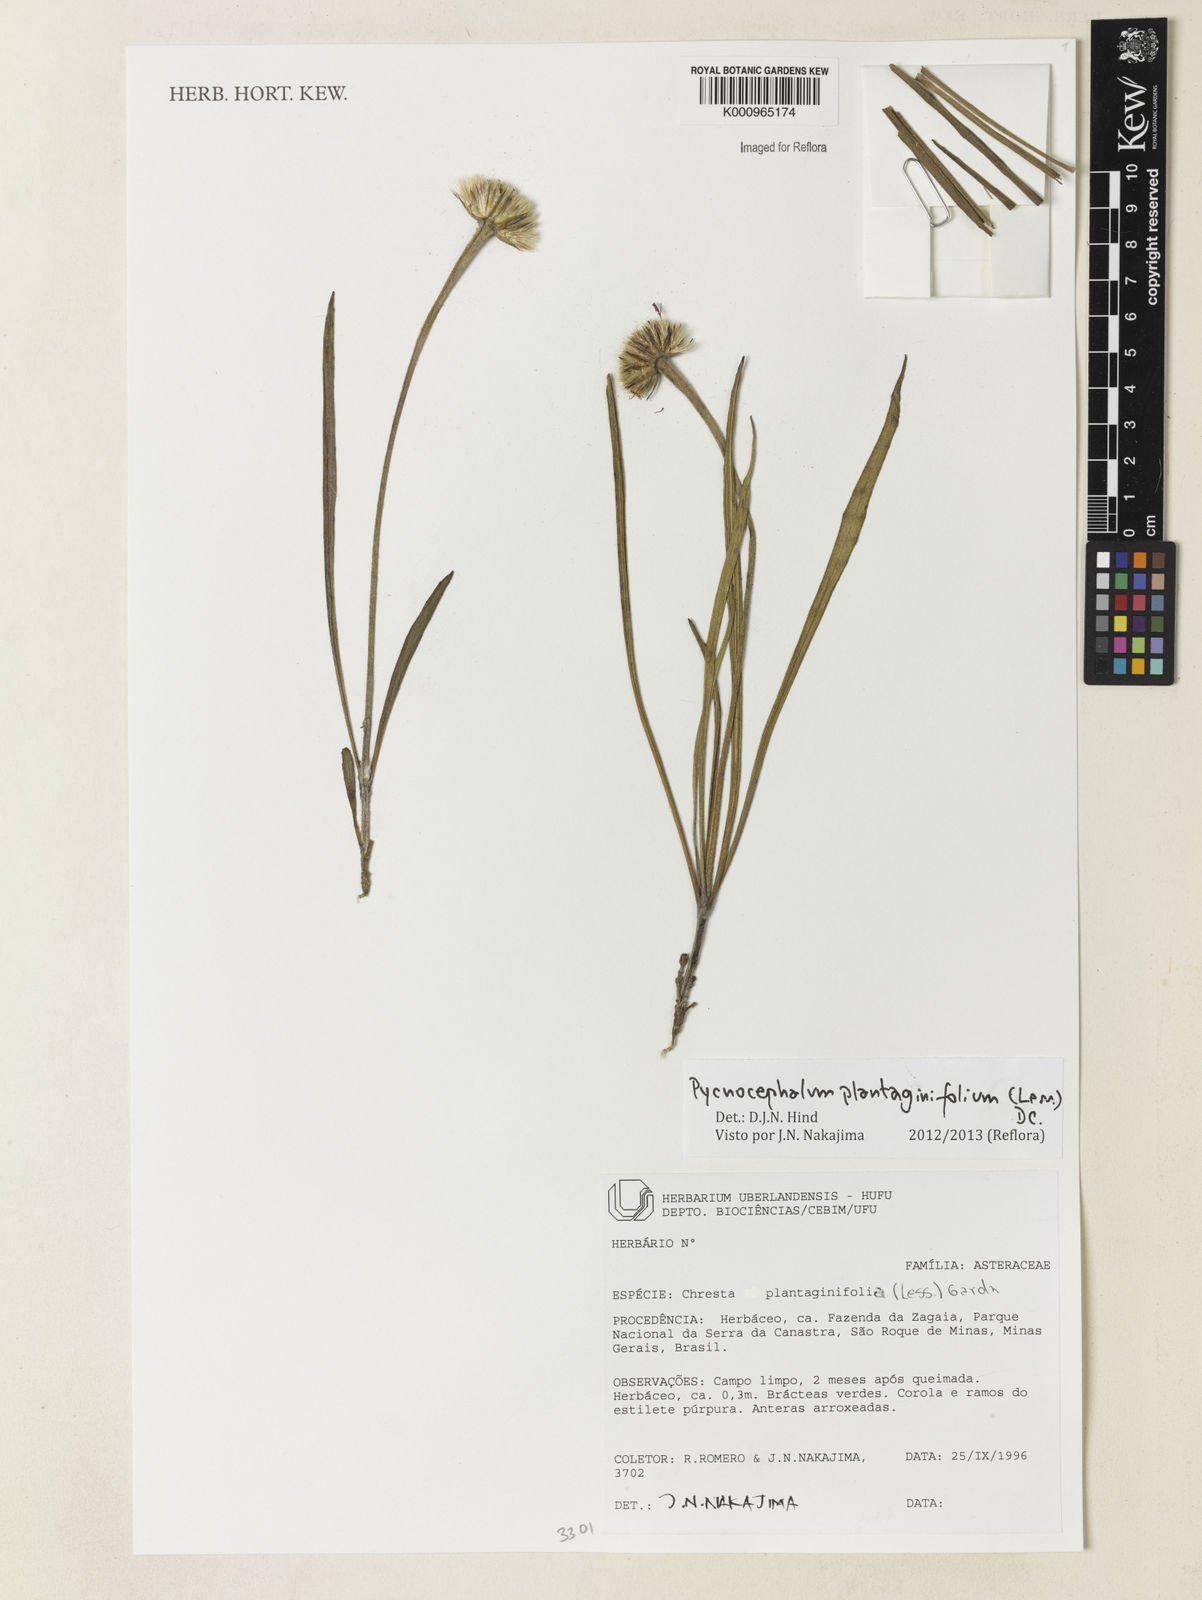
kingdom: Plantae
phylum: Tracheophyta
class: Magnoliopsida
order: Asterales
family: Asteraceae
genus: Chresta
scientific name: Chresta plantaginifolia
